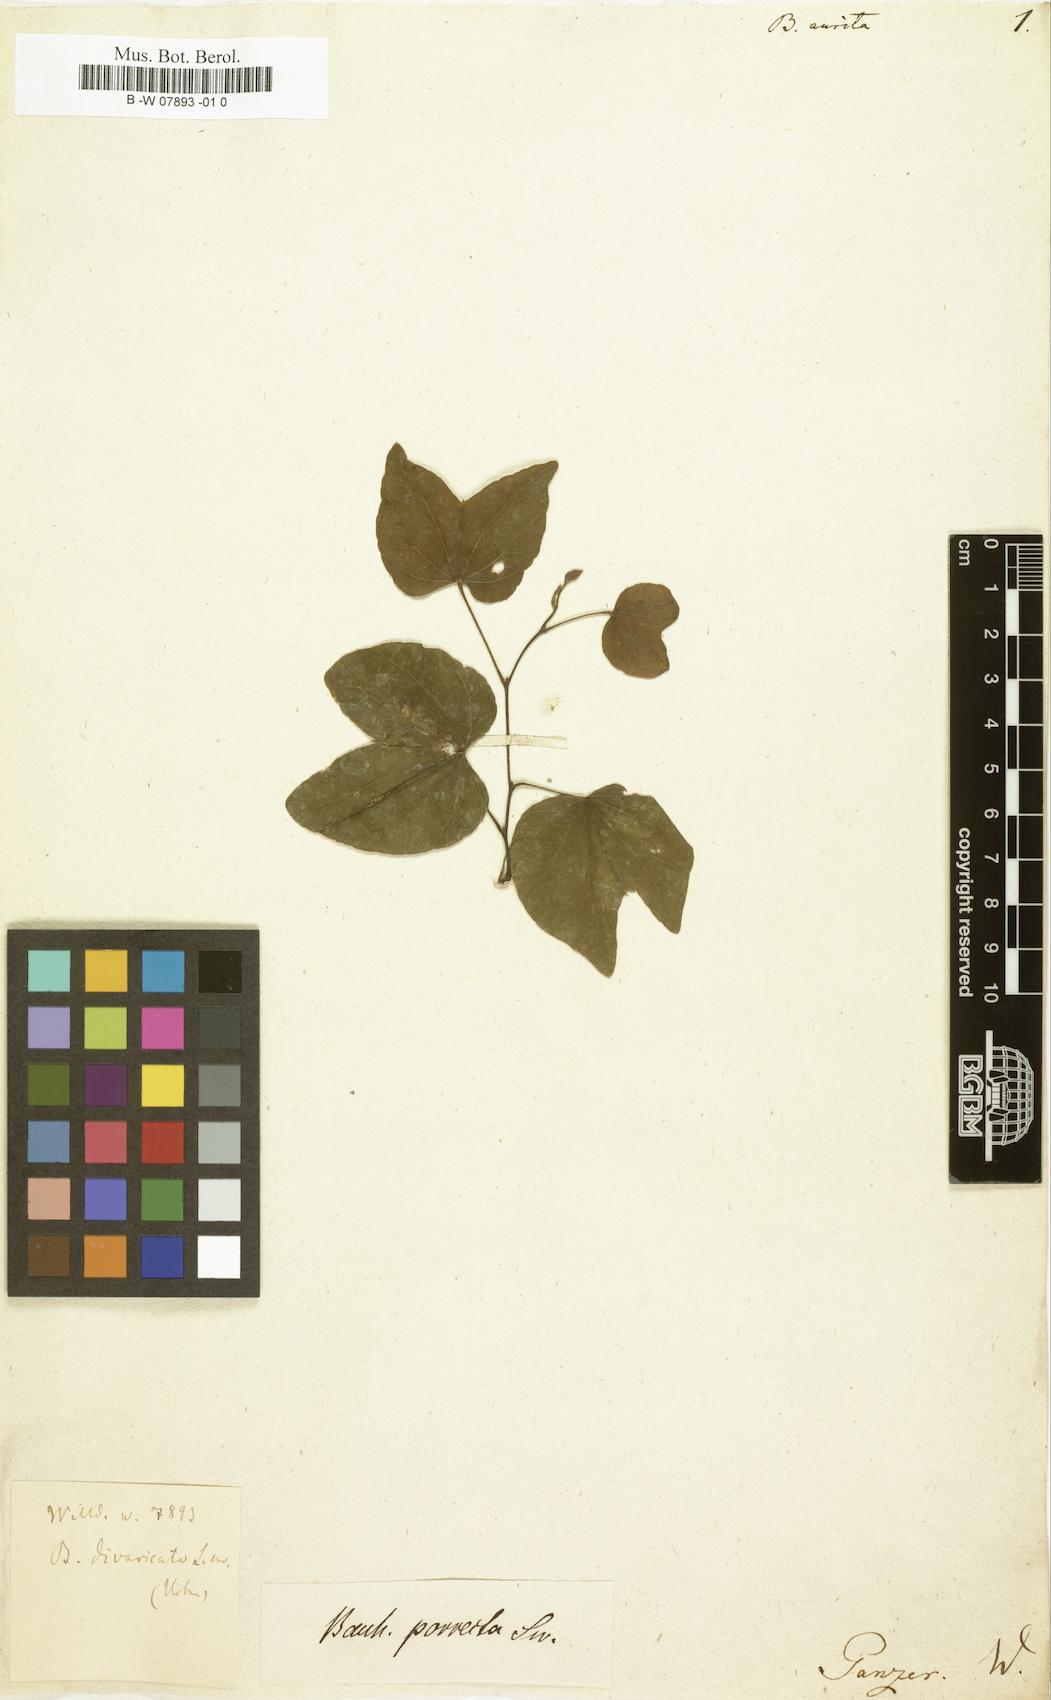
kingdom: Plantae
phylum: Tracheophyta
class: Magnoliopsida
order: Fabales
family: Fabaceae
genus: Bauhinia
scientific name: Bauhinia divaricata
